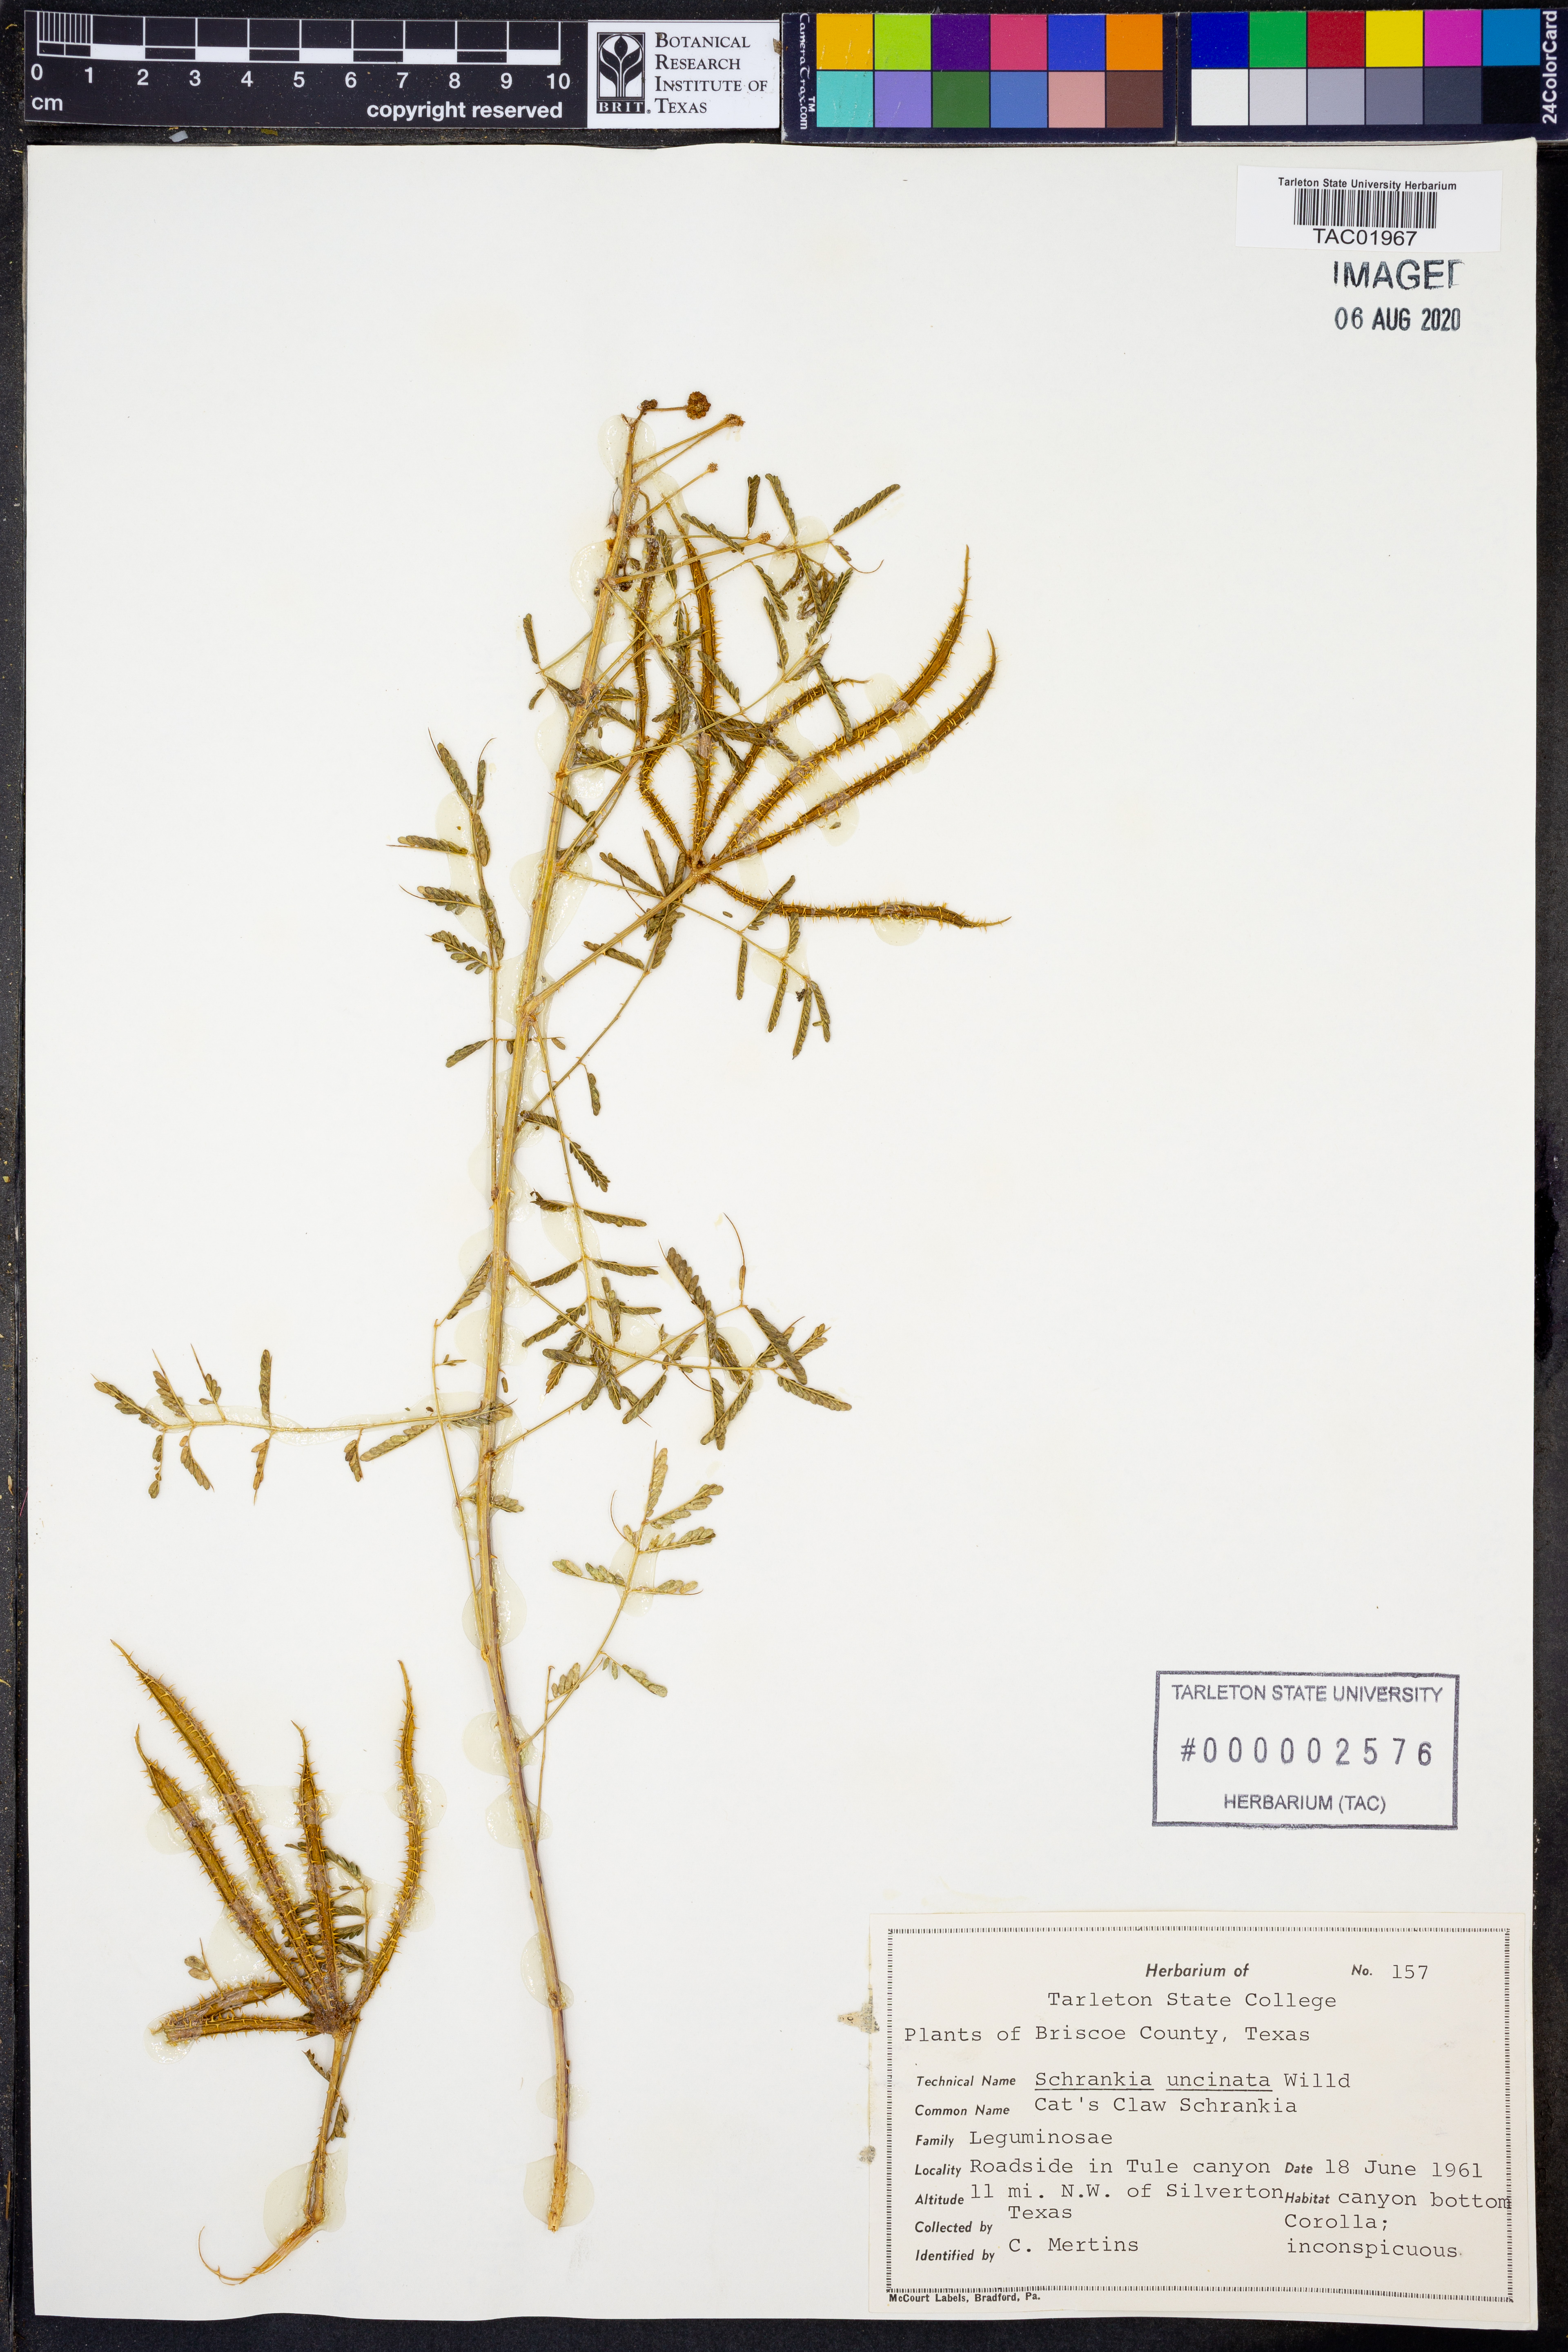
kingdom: Plantae
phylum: Tracheophyta
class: Magnoliopsida
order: Fabales
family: Fabaceae
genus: Mimosa
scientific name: Mimosa quadrivalvis
